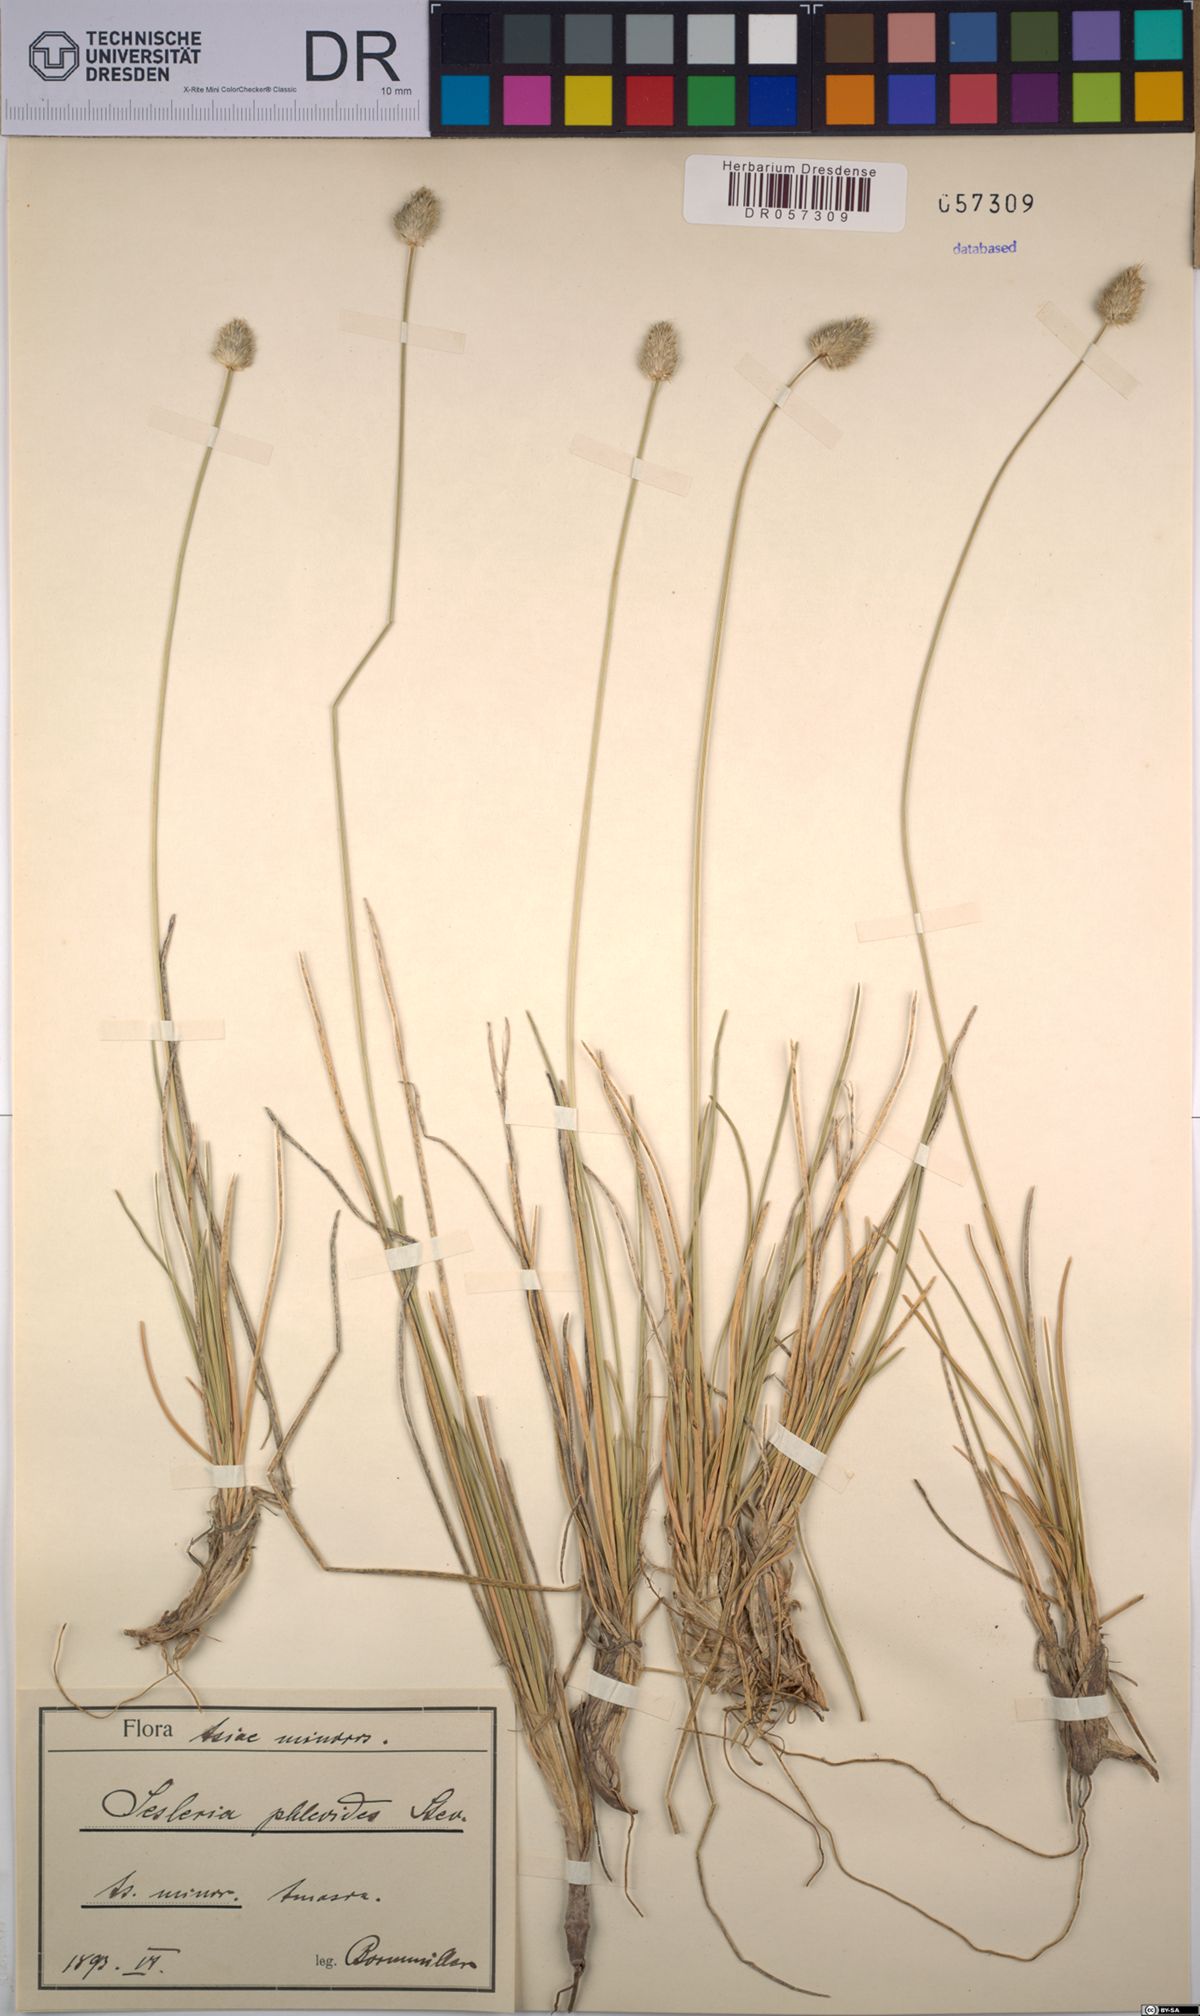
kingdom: Plantae
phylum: Tracheophyta
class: Liliopsida
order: Poales
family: Poaceae
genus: Sesleria
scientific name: Sesleria phleoides
